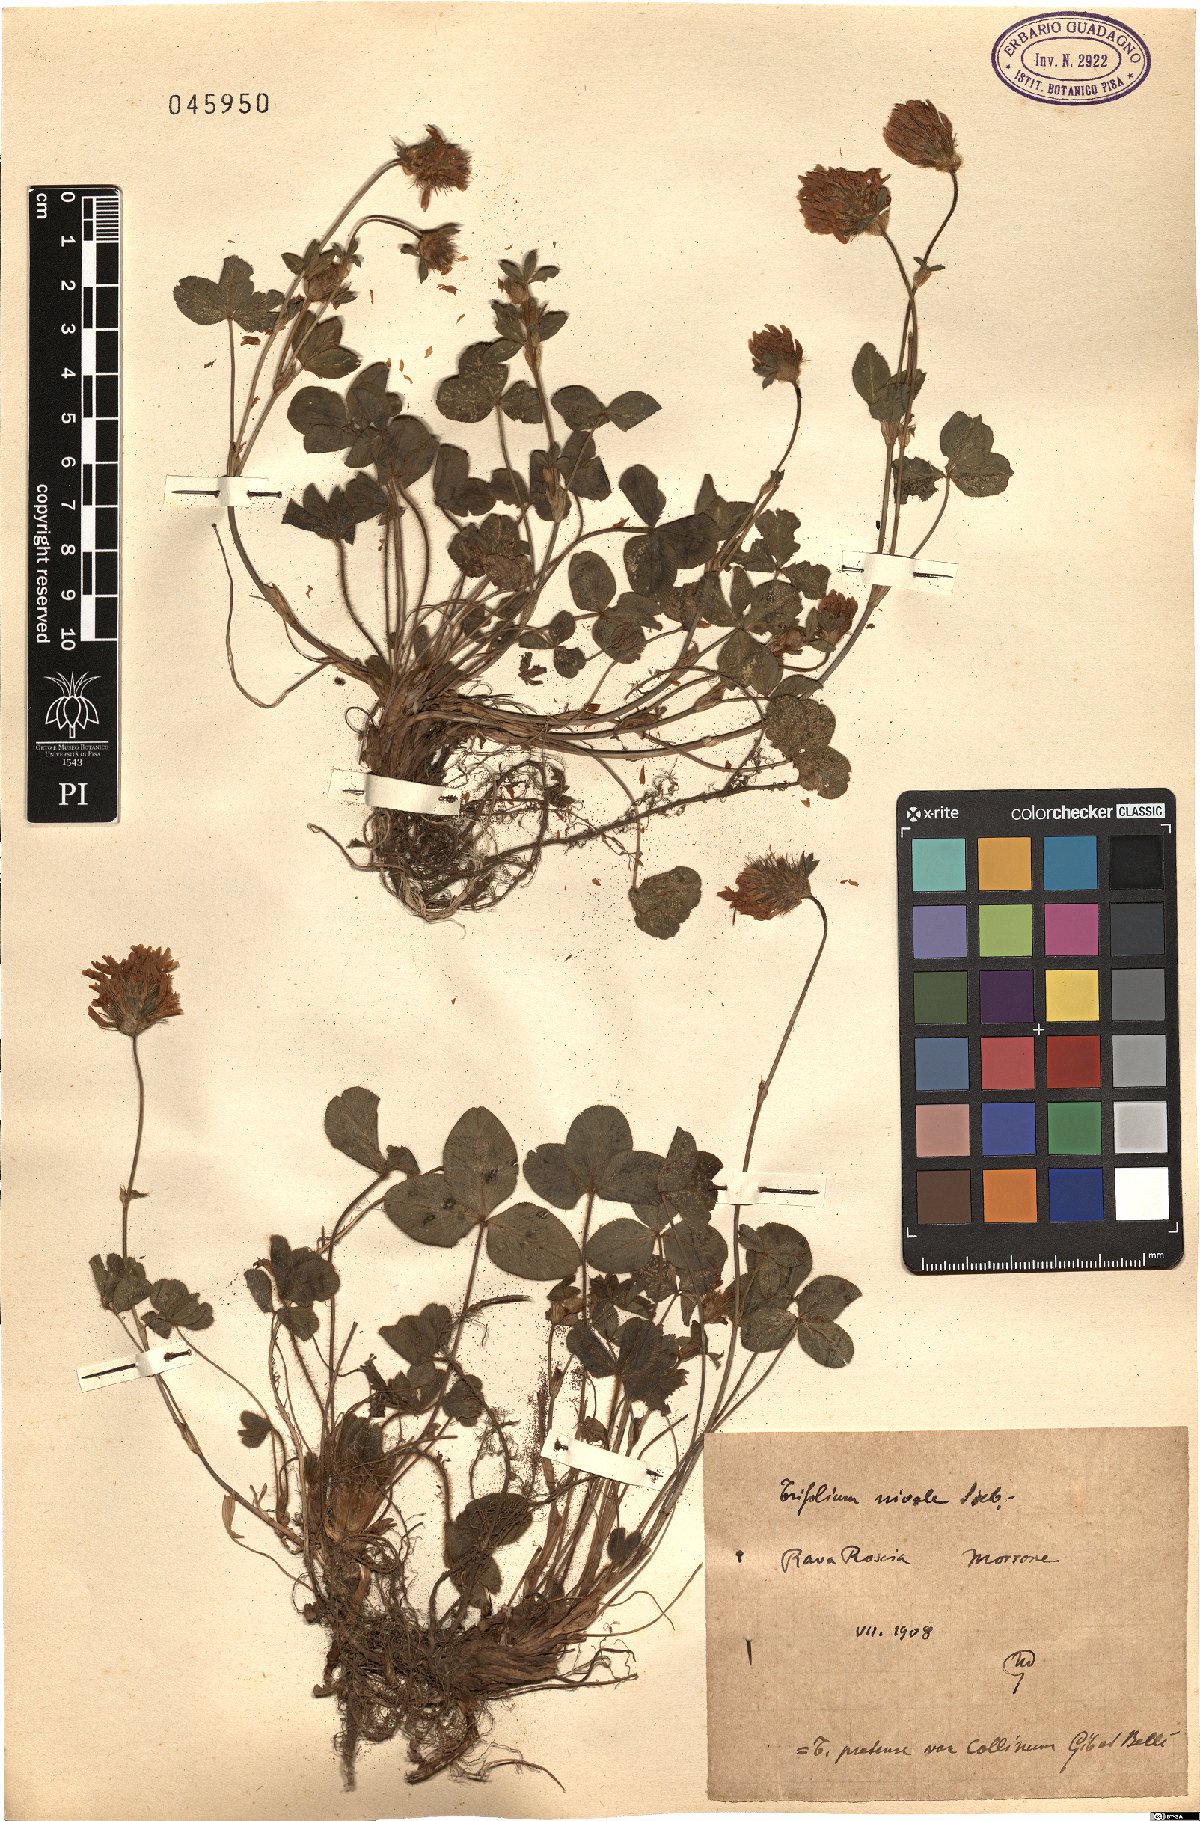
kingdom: Plantae
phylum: Tracheophyta
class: Magnoliopsida
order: Fabales
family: Fabaceae
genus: Trifolium
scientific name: Trifolium pratense
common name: Red clover
